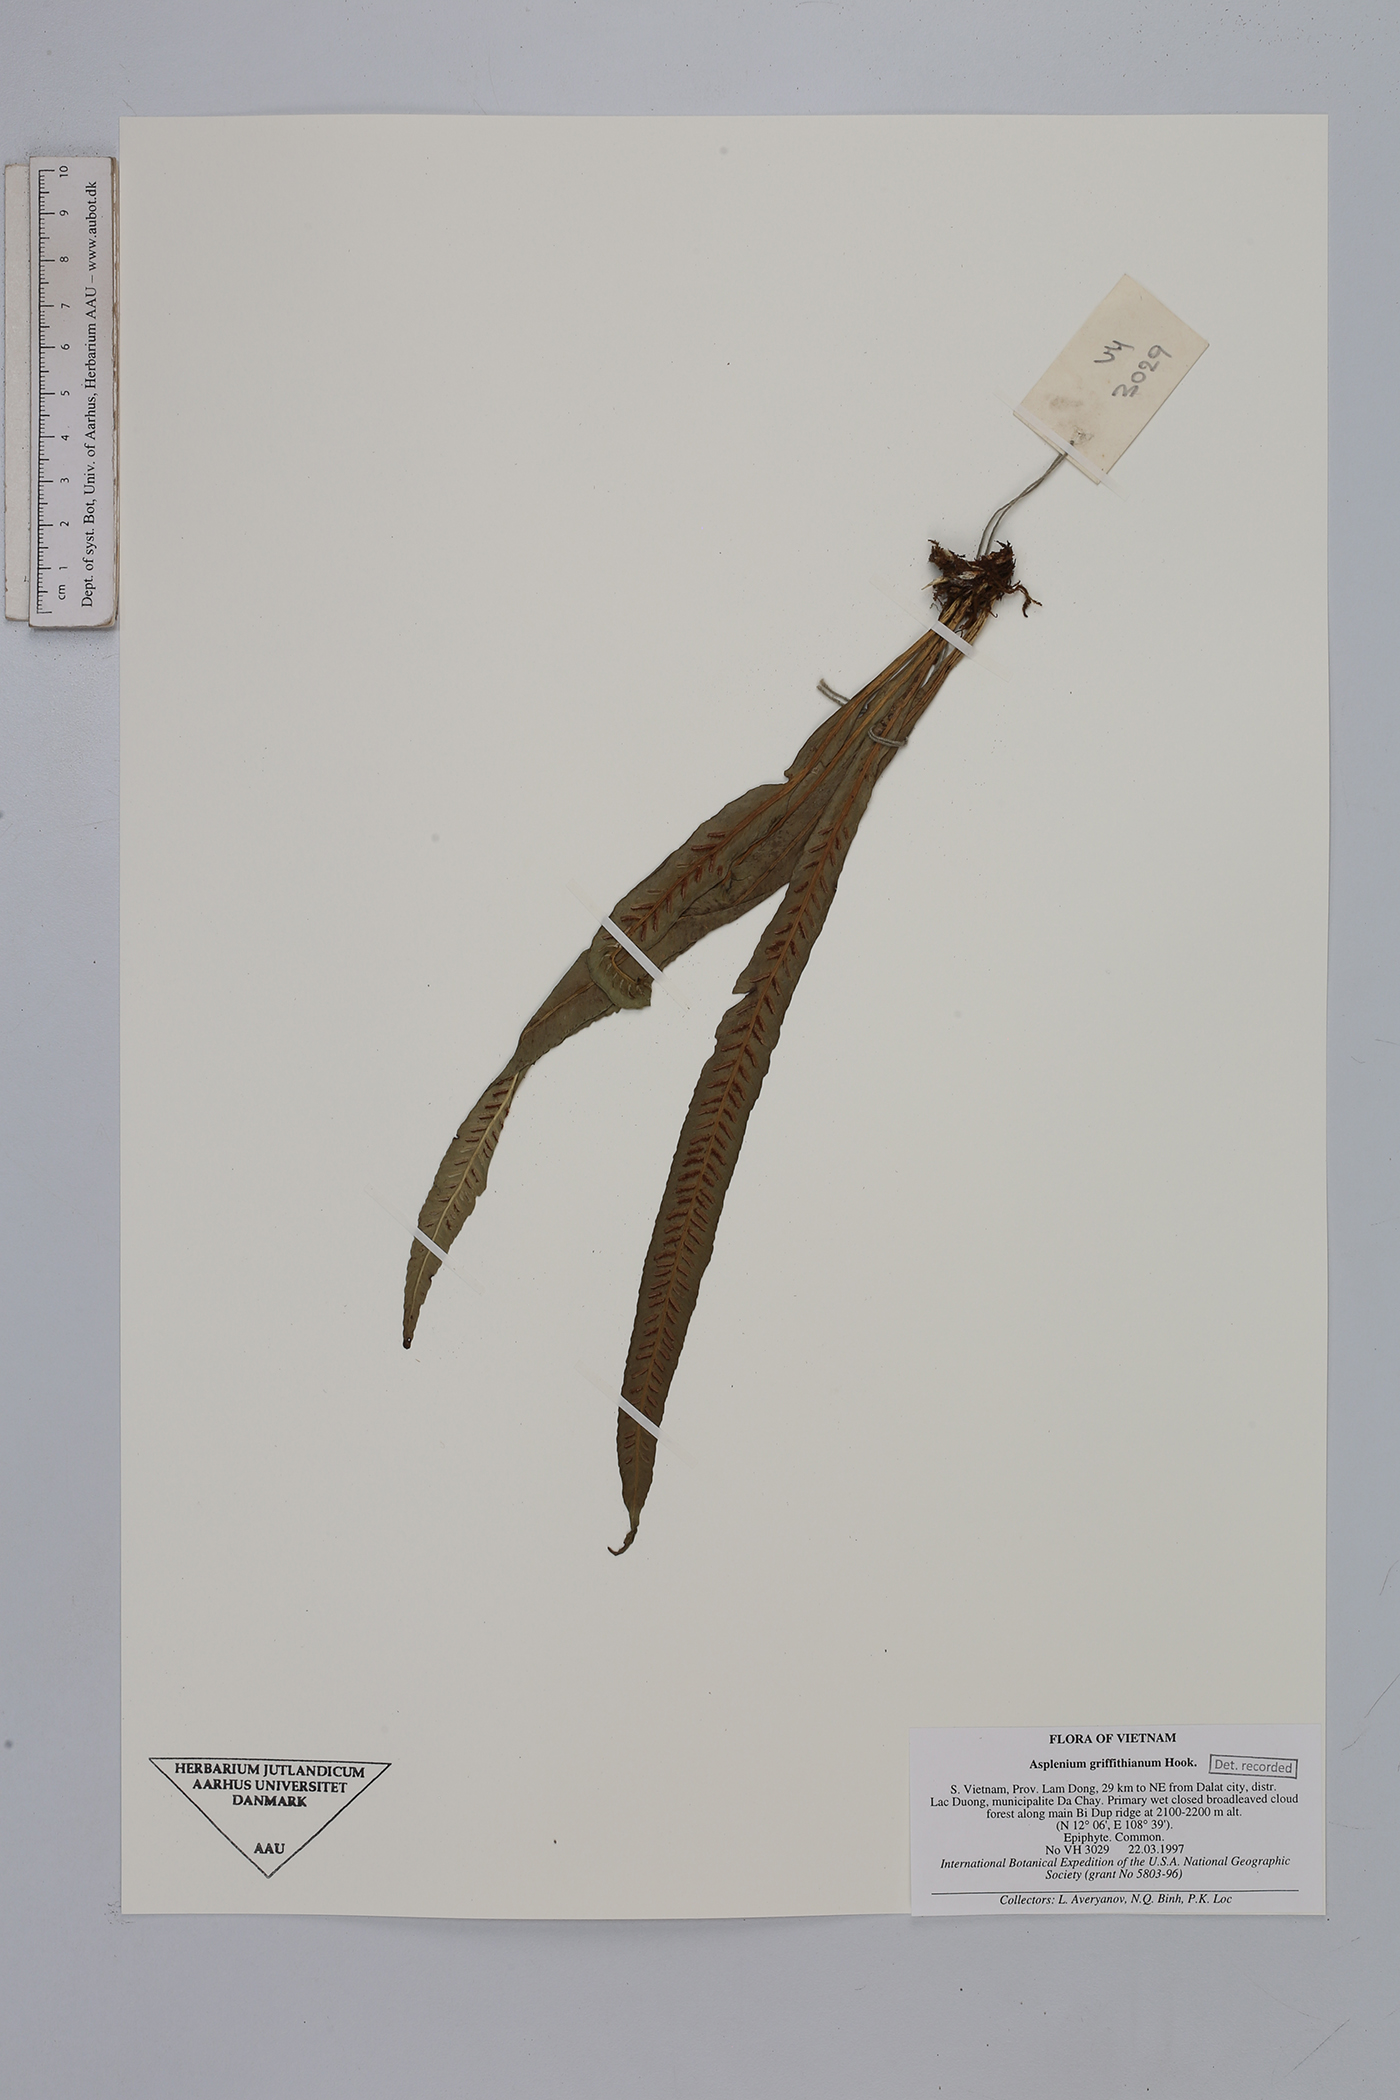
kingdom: Plantae
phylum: Tracheophyta
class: Polypodiopsida
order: Polypodiales
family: Aspleniaceae
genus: Asplenium
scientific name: Asplenium griffithianum
